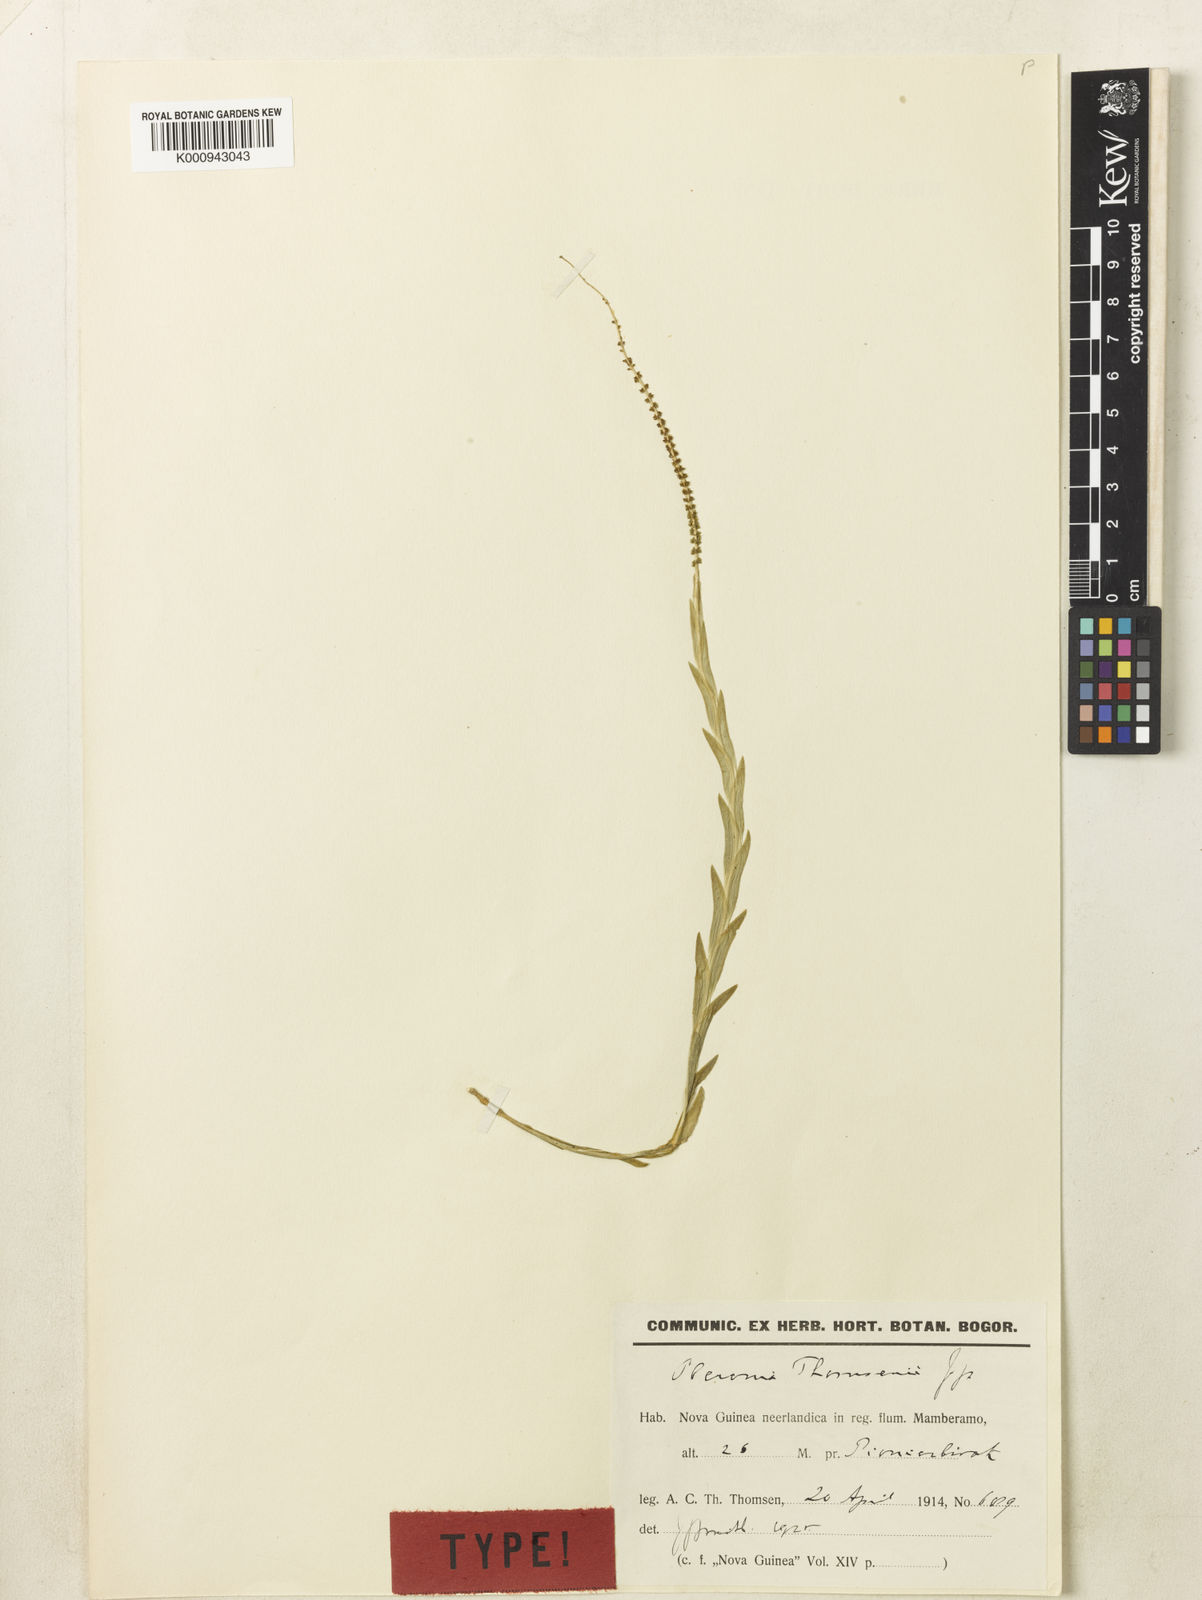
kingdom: Plantae
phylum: Tracheophyta
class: Liliopsida
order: Asparagales
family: Orchidaceae
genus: Oberonia
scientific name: Oberonia thomsenii
